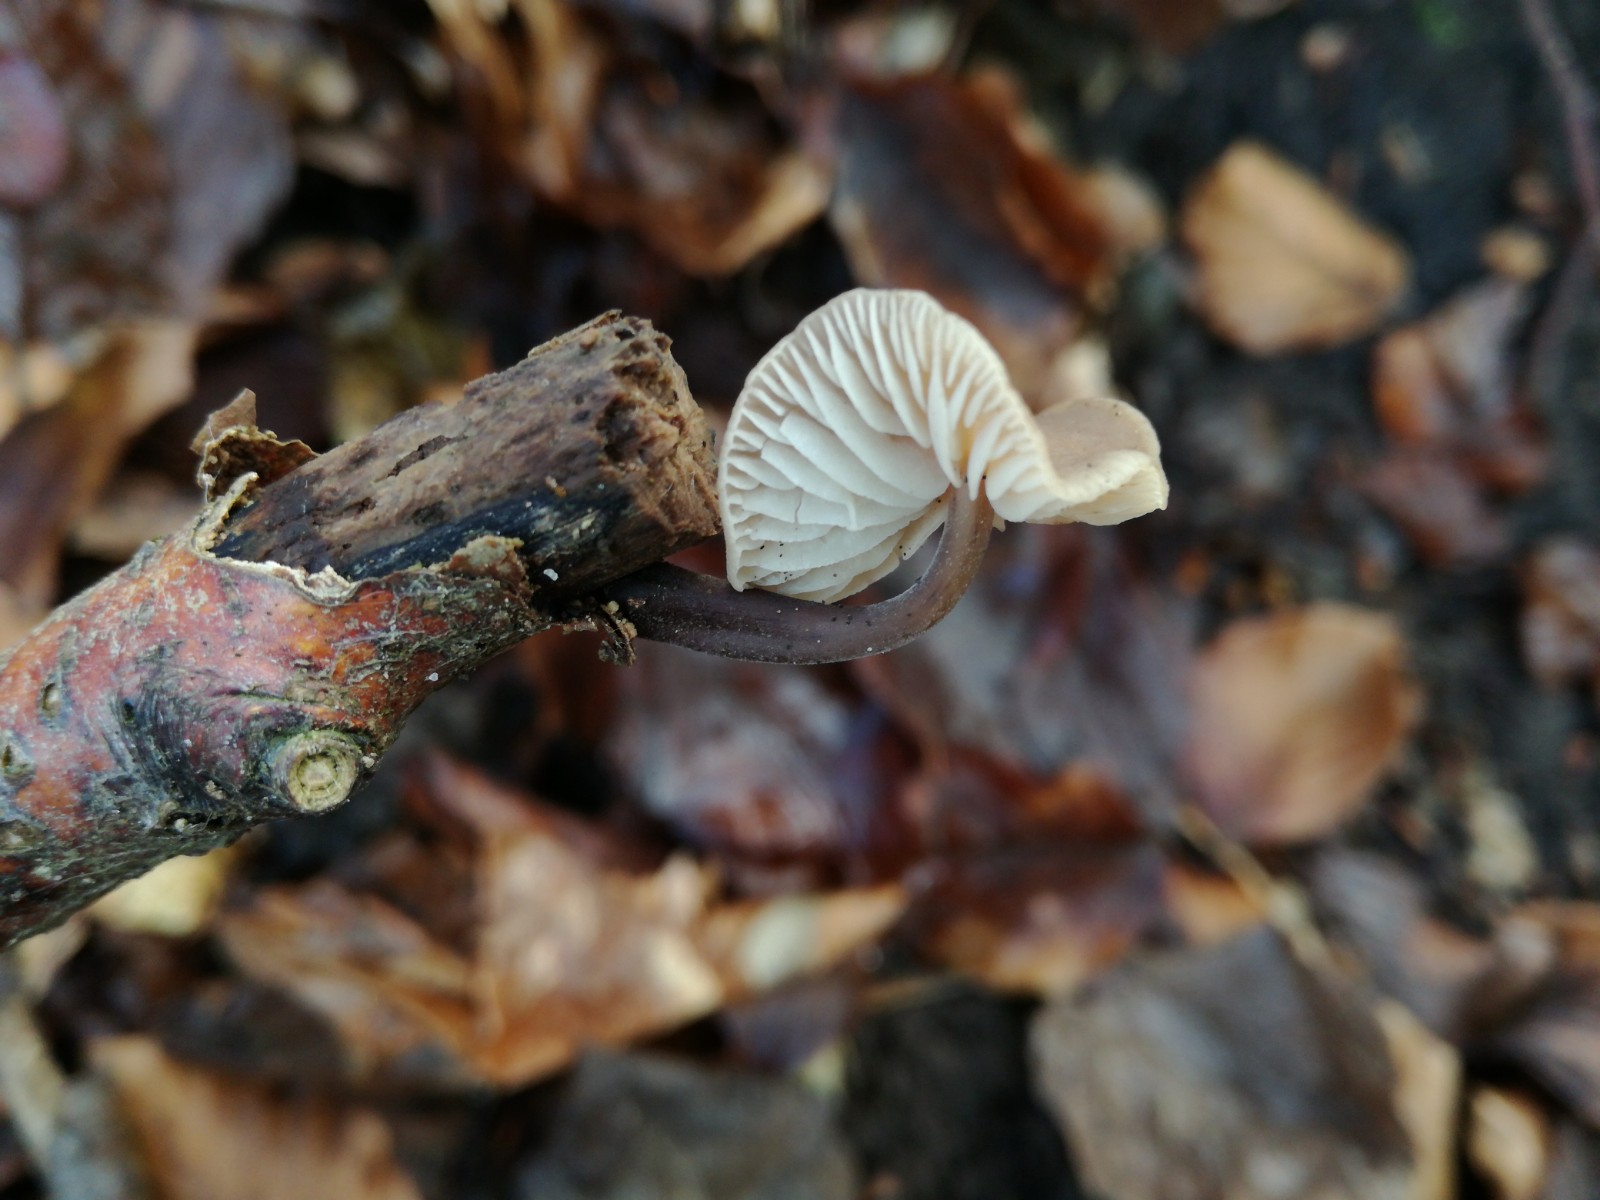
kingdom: Fungi
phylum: Basidiomycota
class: Agaricomycetes
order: Agaricales
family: Omphalotaceae
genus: Mycetinis
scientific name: Mycetinis alliaceus
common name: stor løghat
